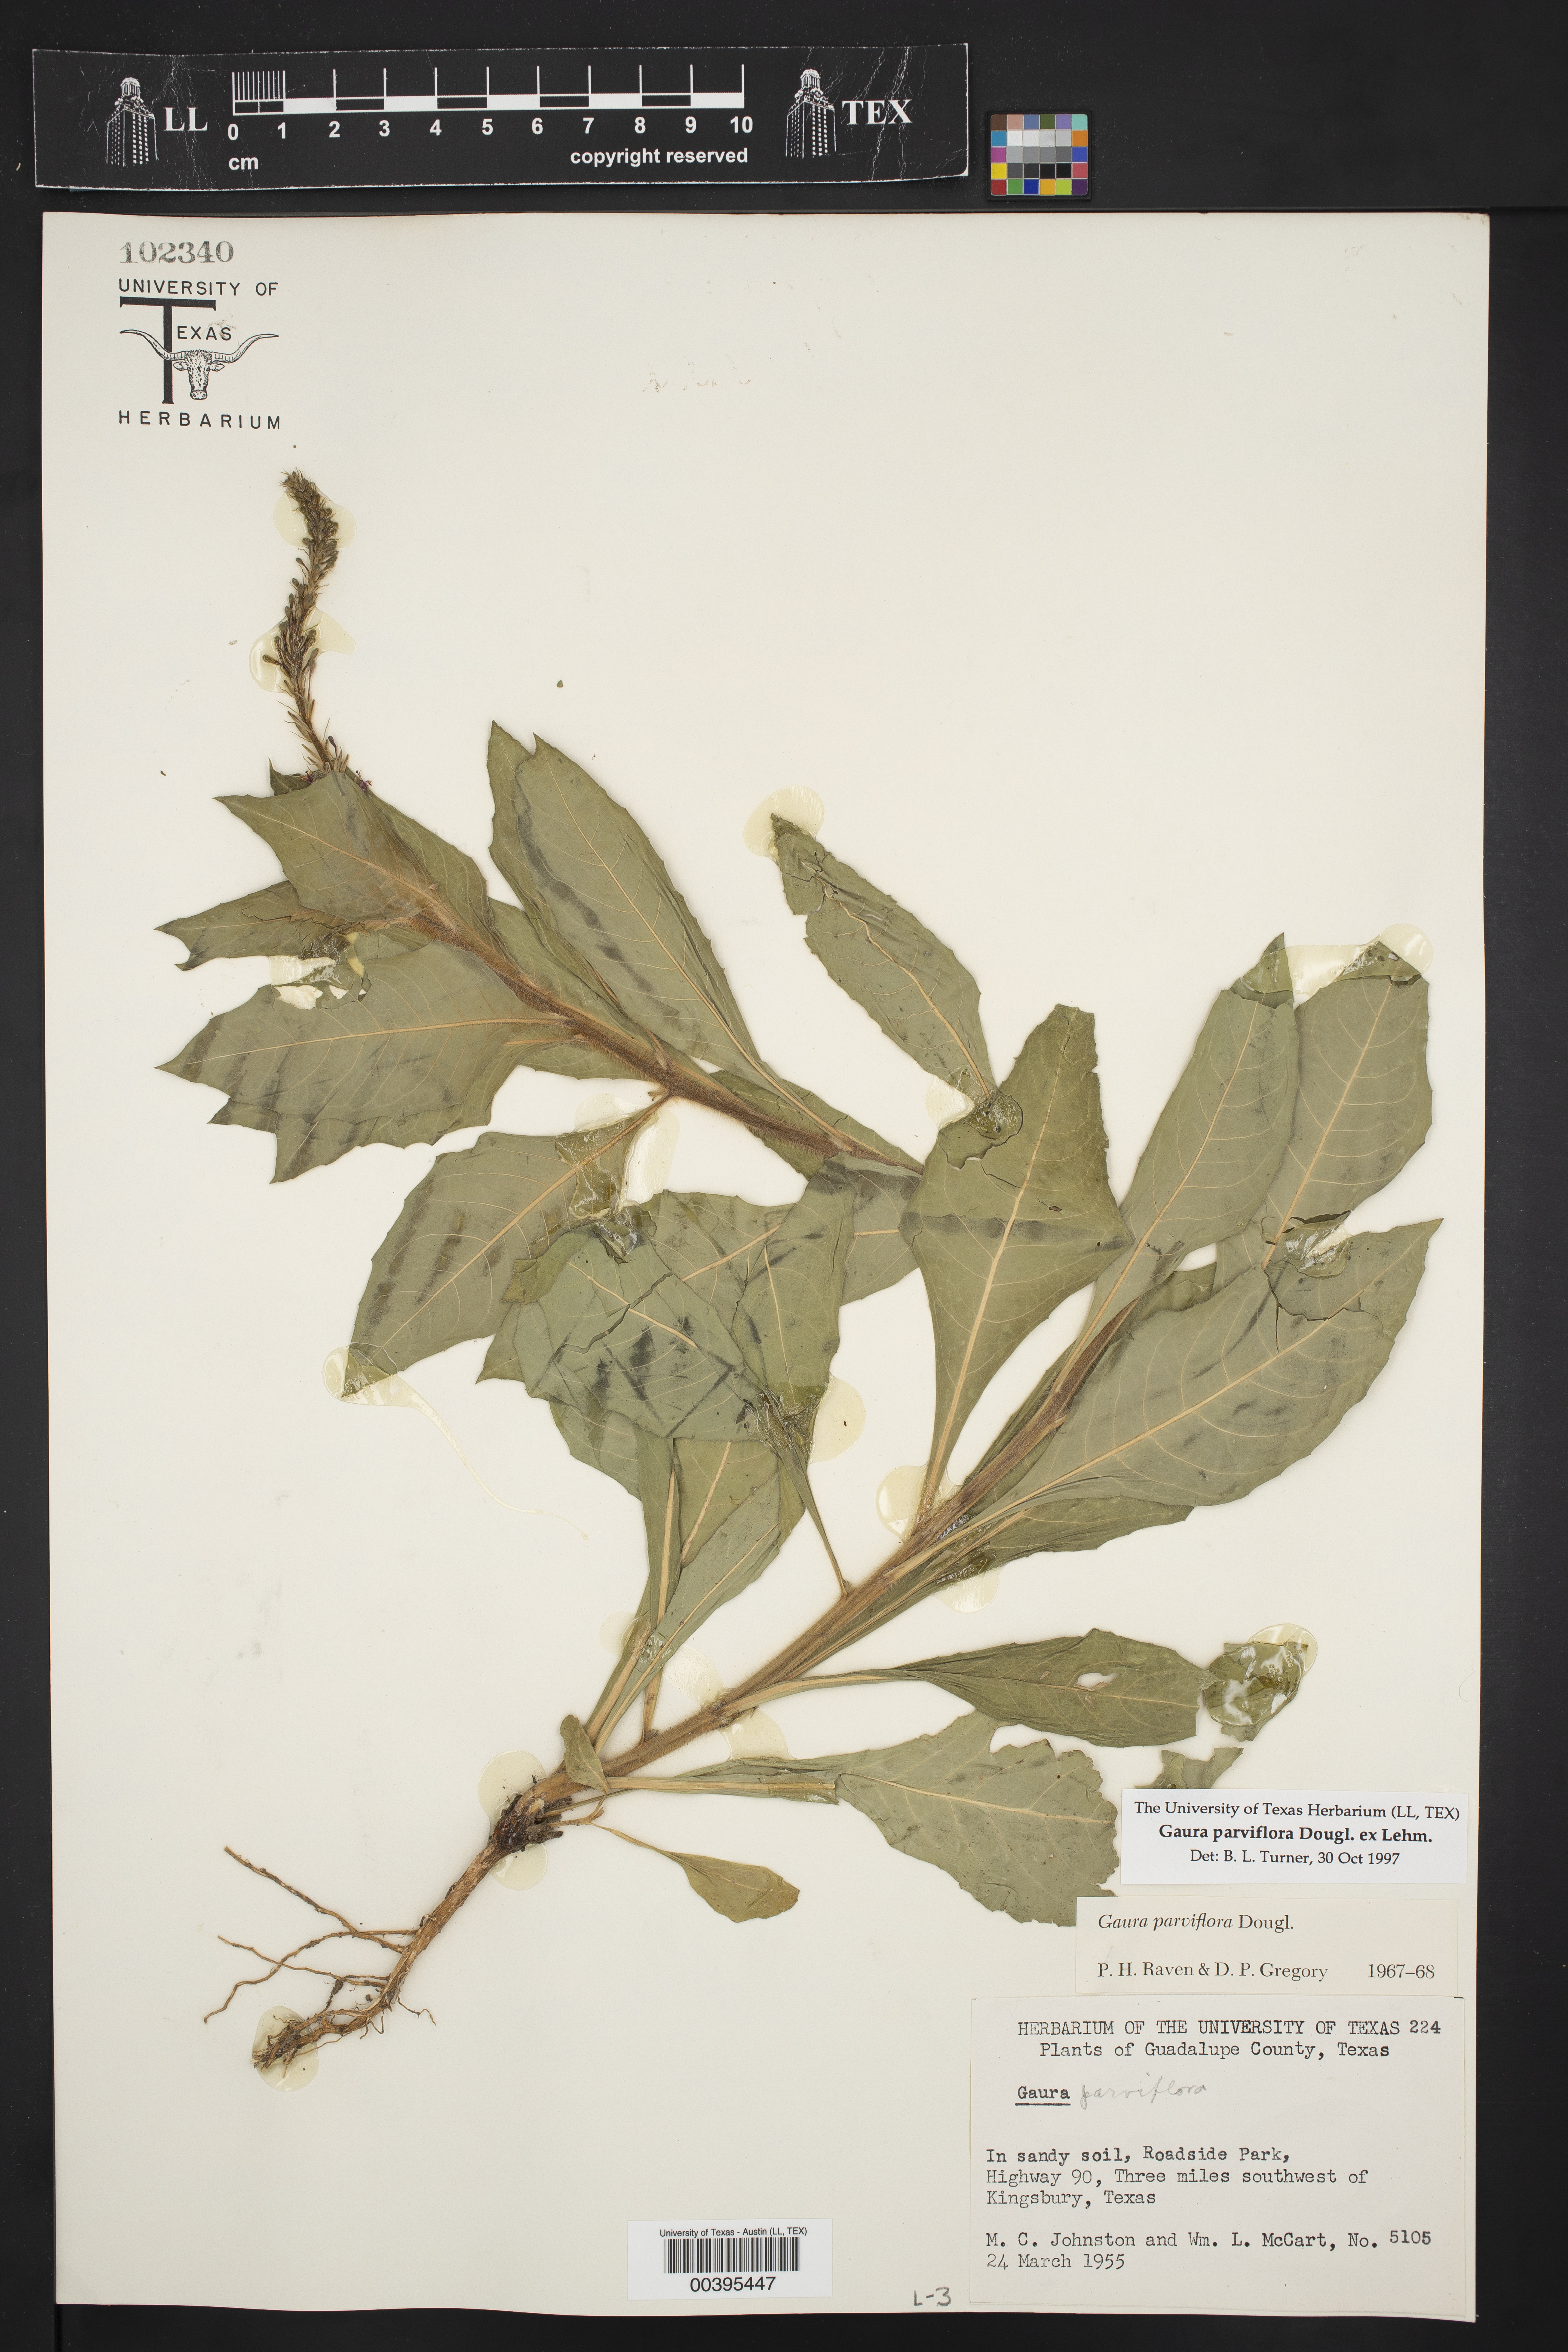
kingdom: Plantae
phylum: Tracheophyta
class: Magnoliopsida
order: Myrtales
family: Onagraceae
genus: Oenothera
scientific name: Oenothera curtiflora
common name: Velvetweed
